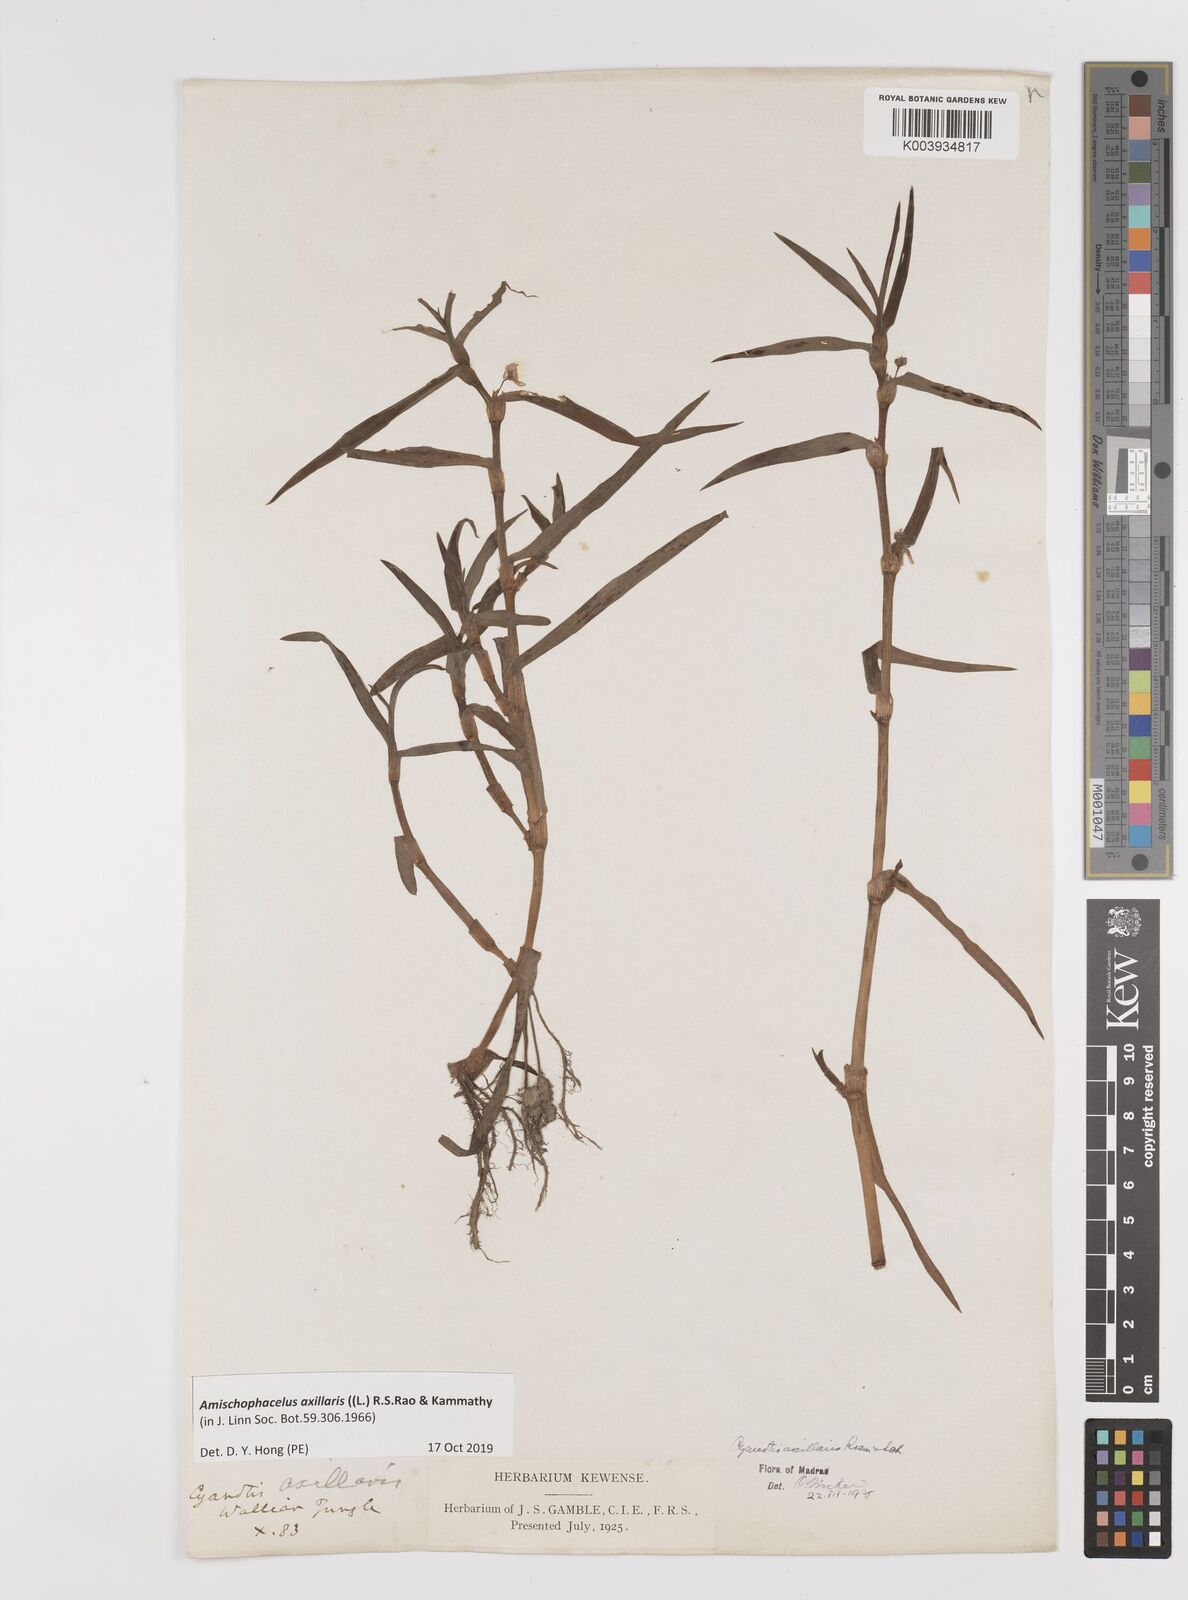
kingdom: Plantae
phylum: Tracheophyta
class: Liliopsida
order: Commelinales
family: Commelinaceae
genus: Cyanotis
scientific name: Cyanotis axillaris
